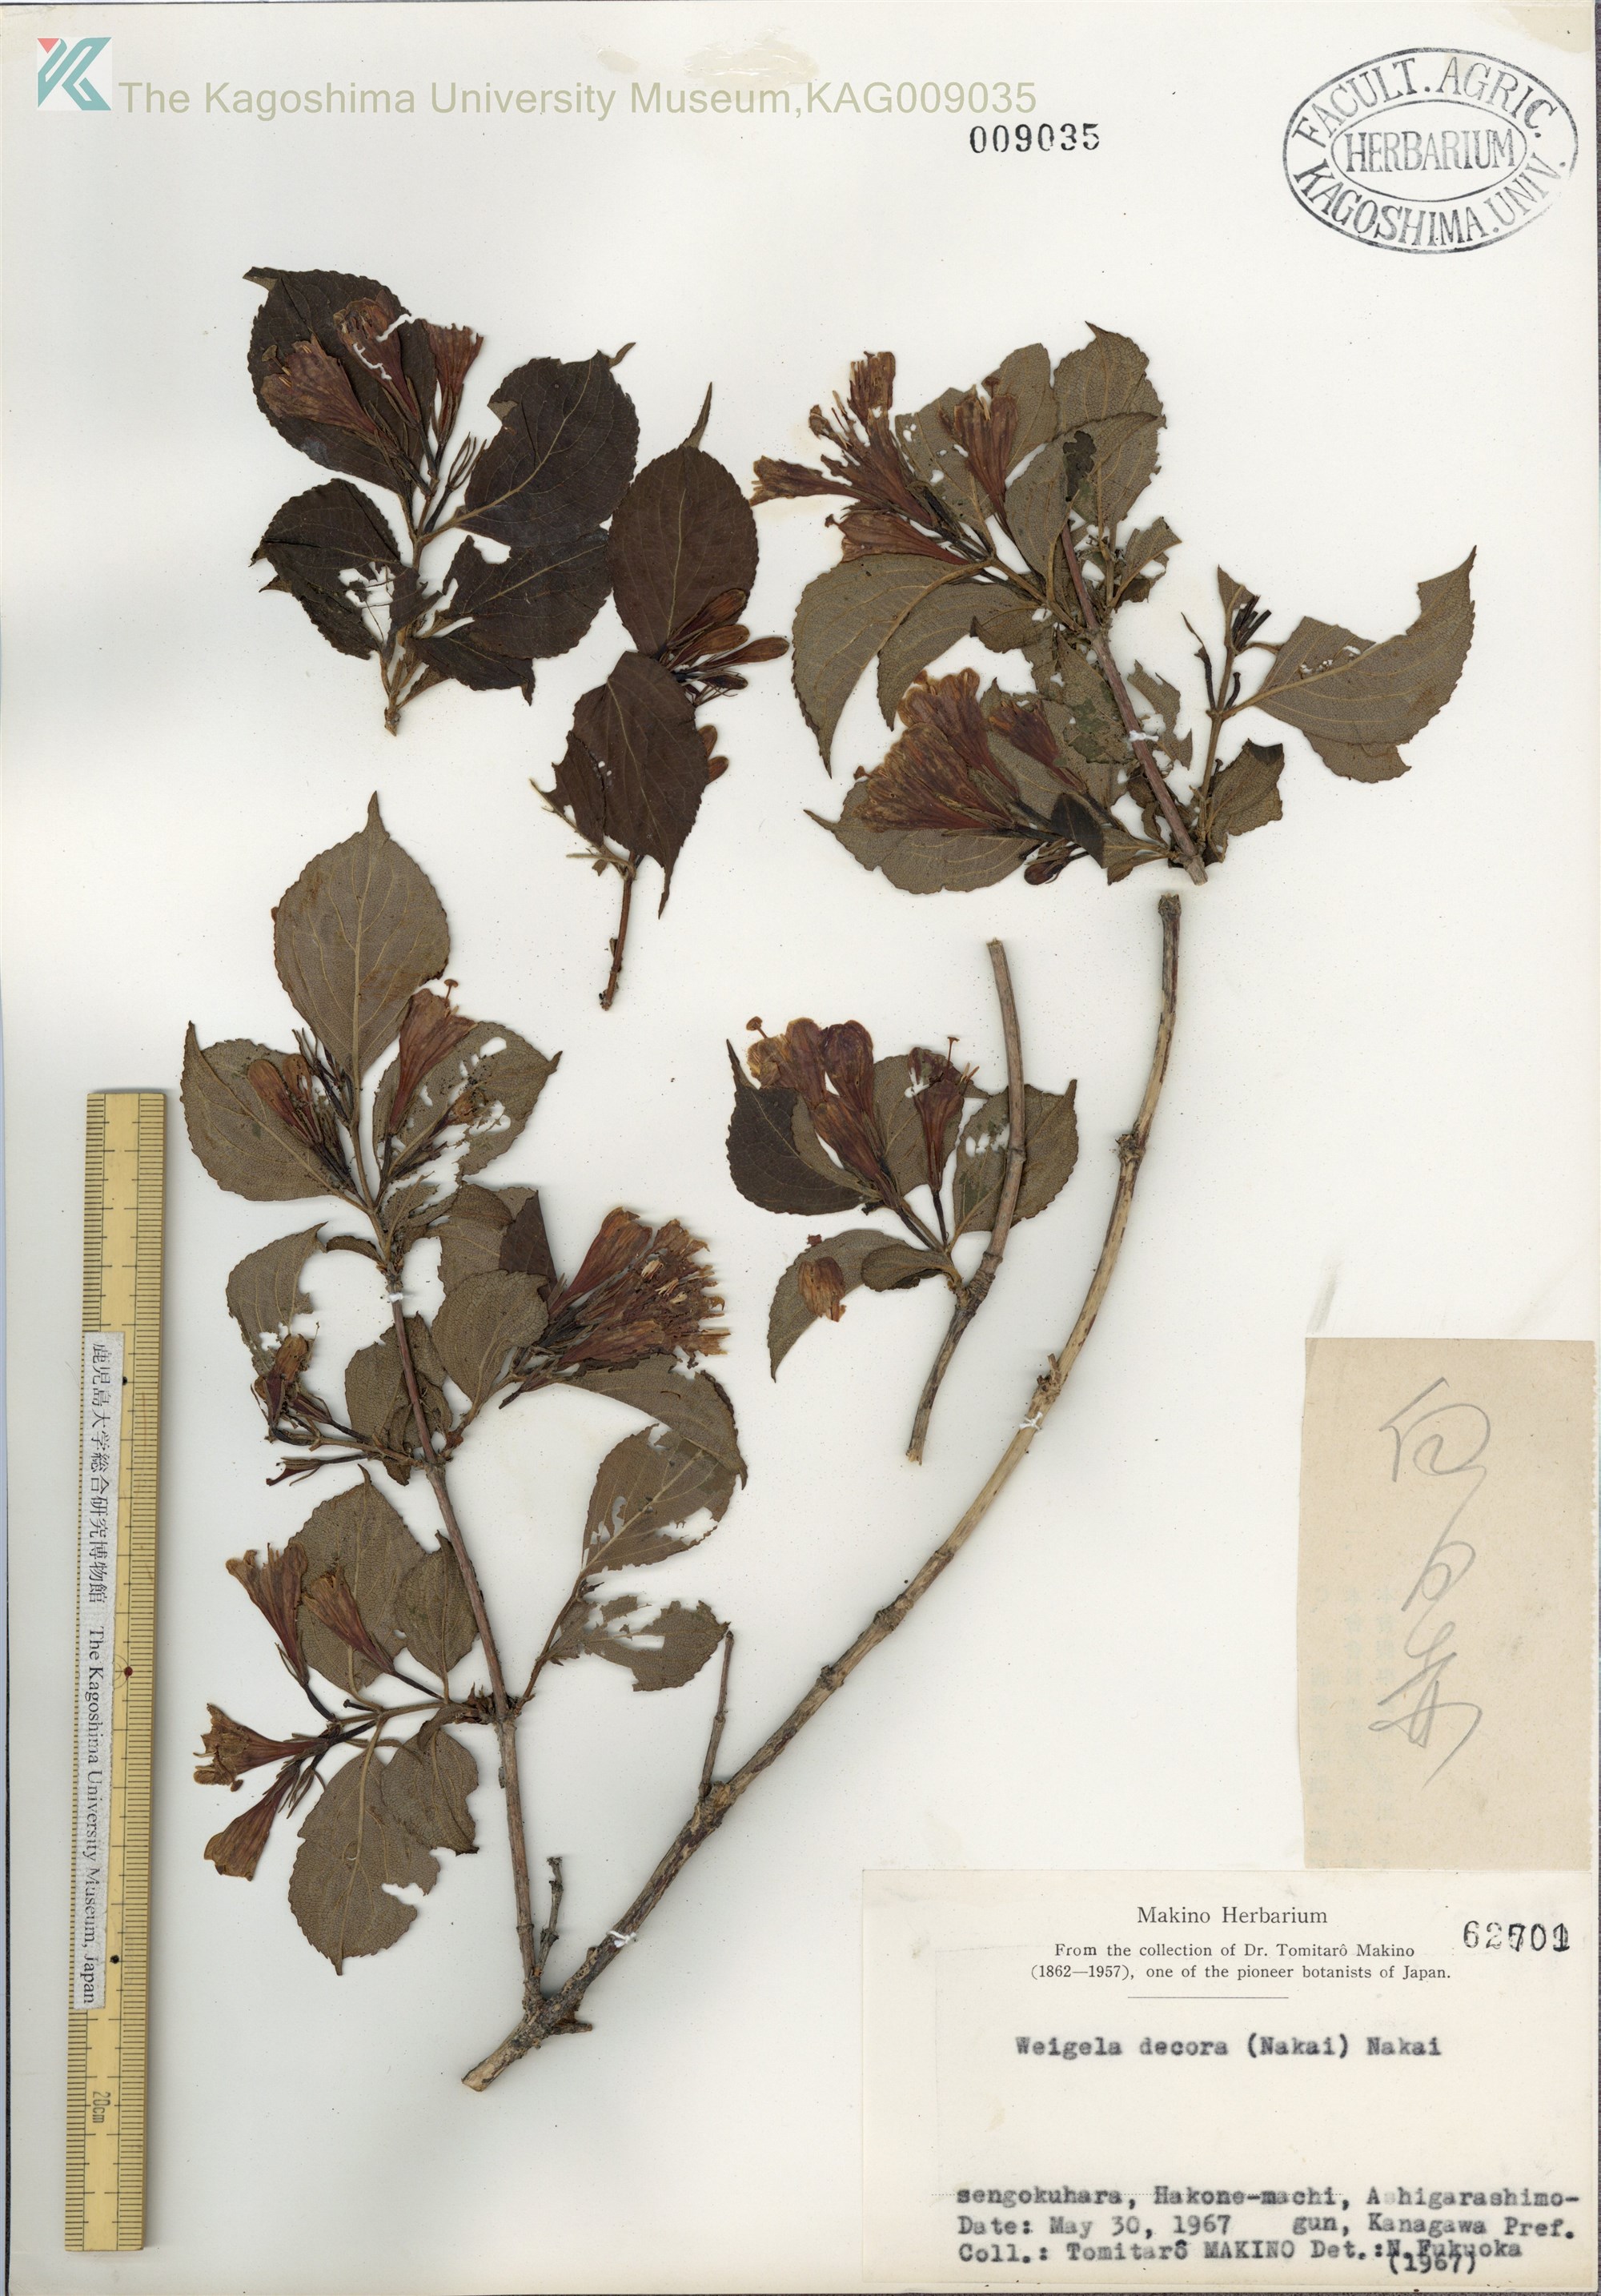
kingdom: Plantae
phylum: Tracheophyta
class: Magnoliopsida
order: Dipsacales
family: Caprifoliaceae
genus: Weigela
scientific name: Weigela decora
